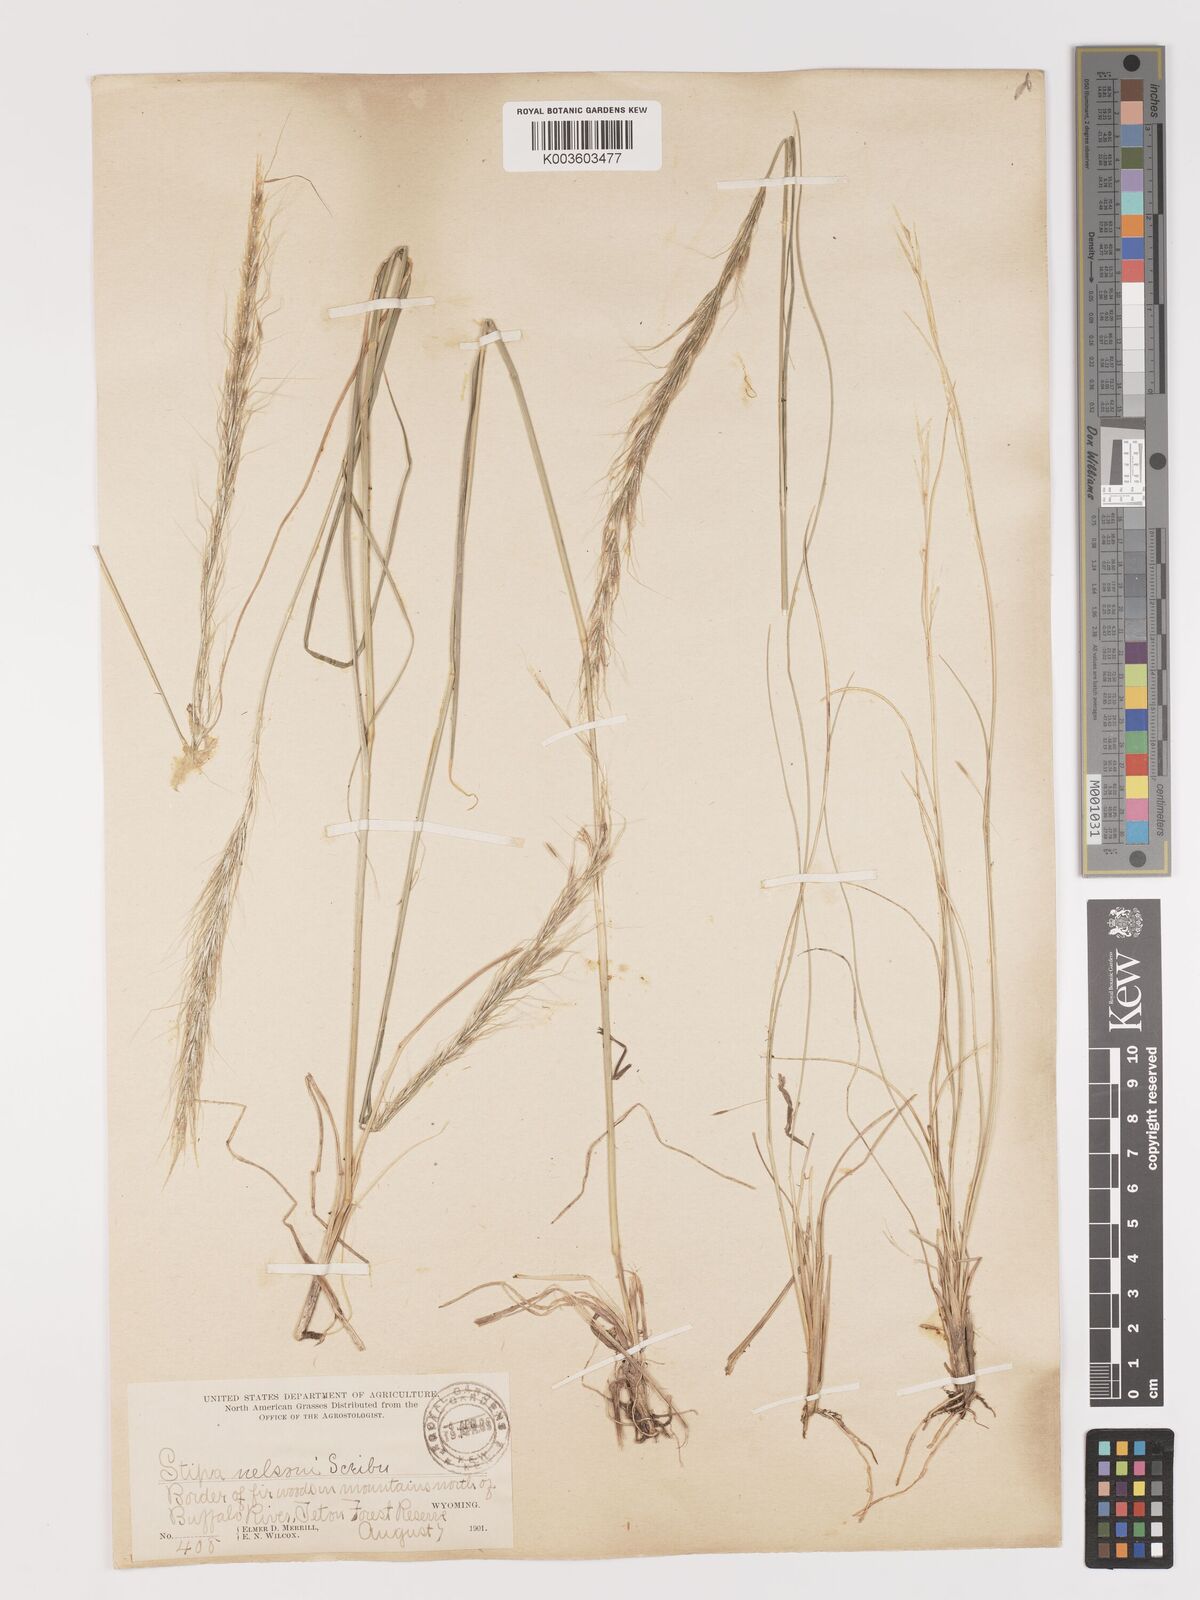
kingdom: Plantae
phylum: Tracheophyta
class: Liliopsida
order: Poales
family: Poaceae
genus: Eriocoma
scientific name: Eriocoma nelsonii
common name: Nelson's needlegrass
